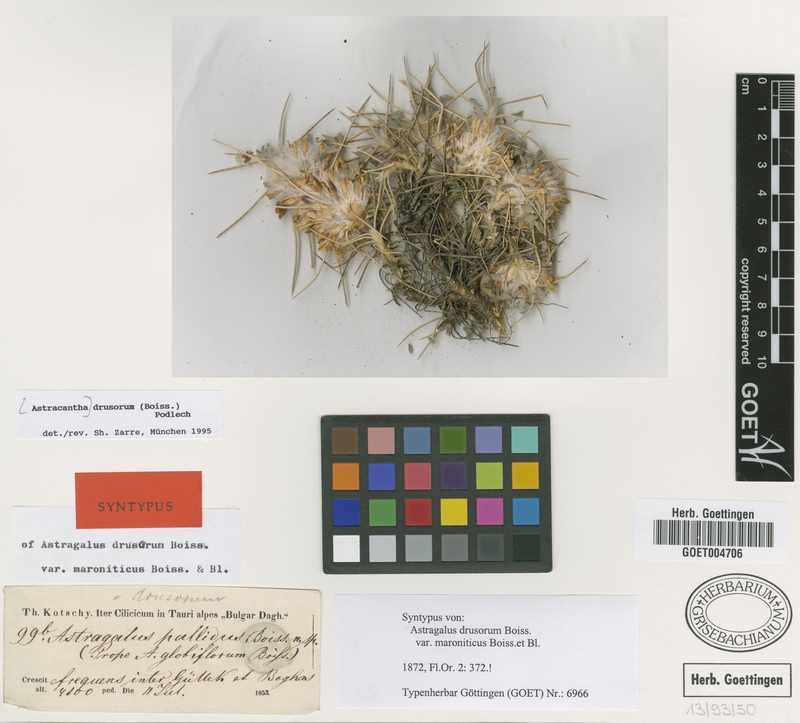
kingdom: Plantae
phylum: Tracheophyta
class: Magnoliopsida
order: Fabales
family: Fabaceae
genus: Astragalus
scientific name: Astragalus drusorum
